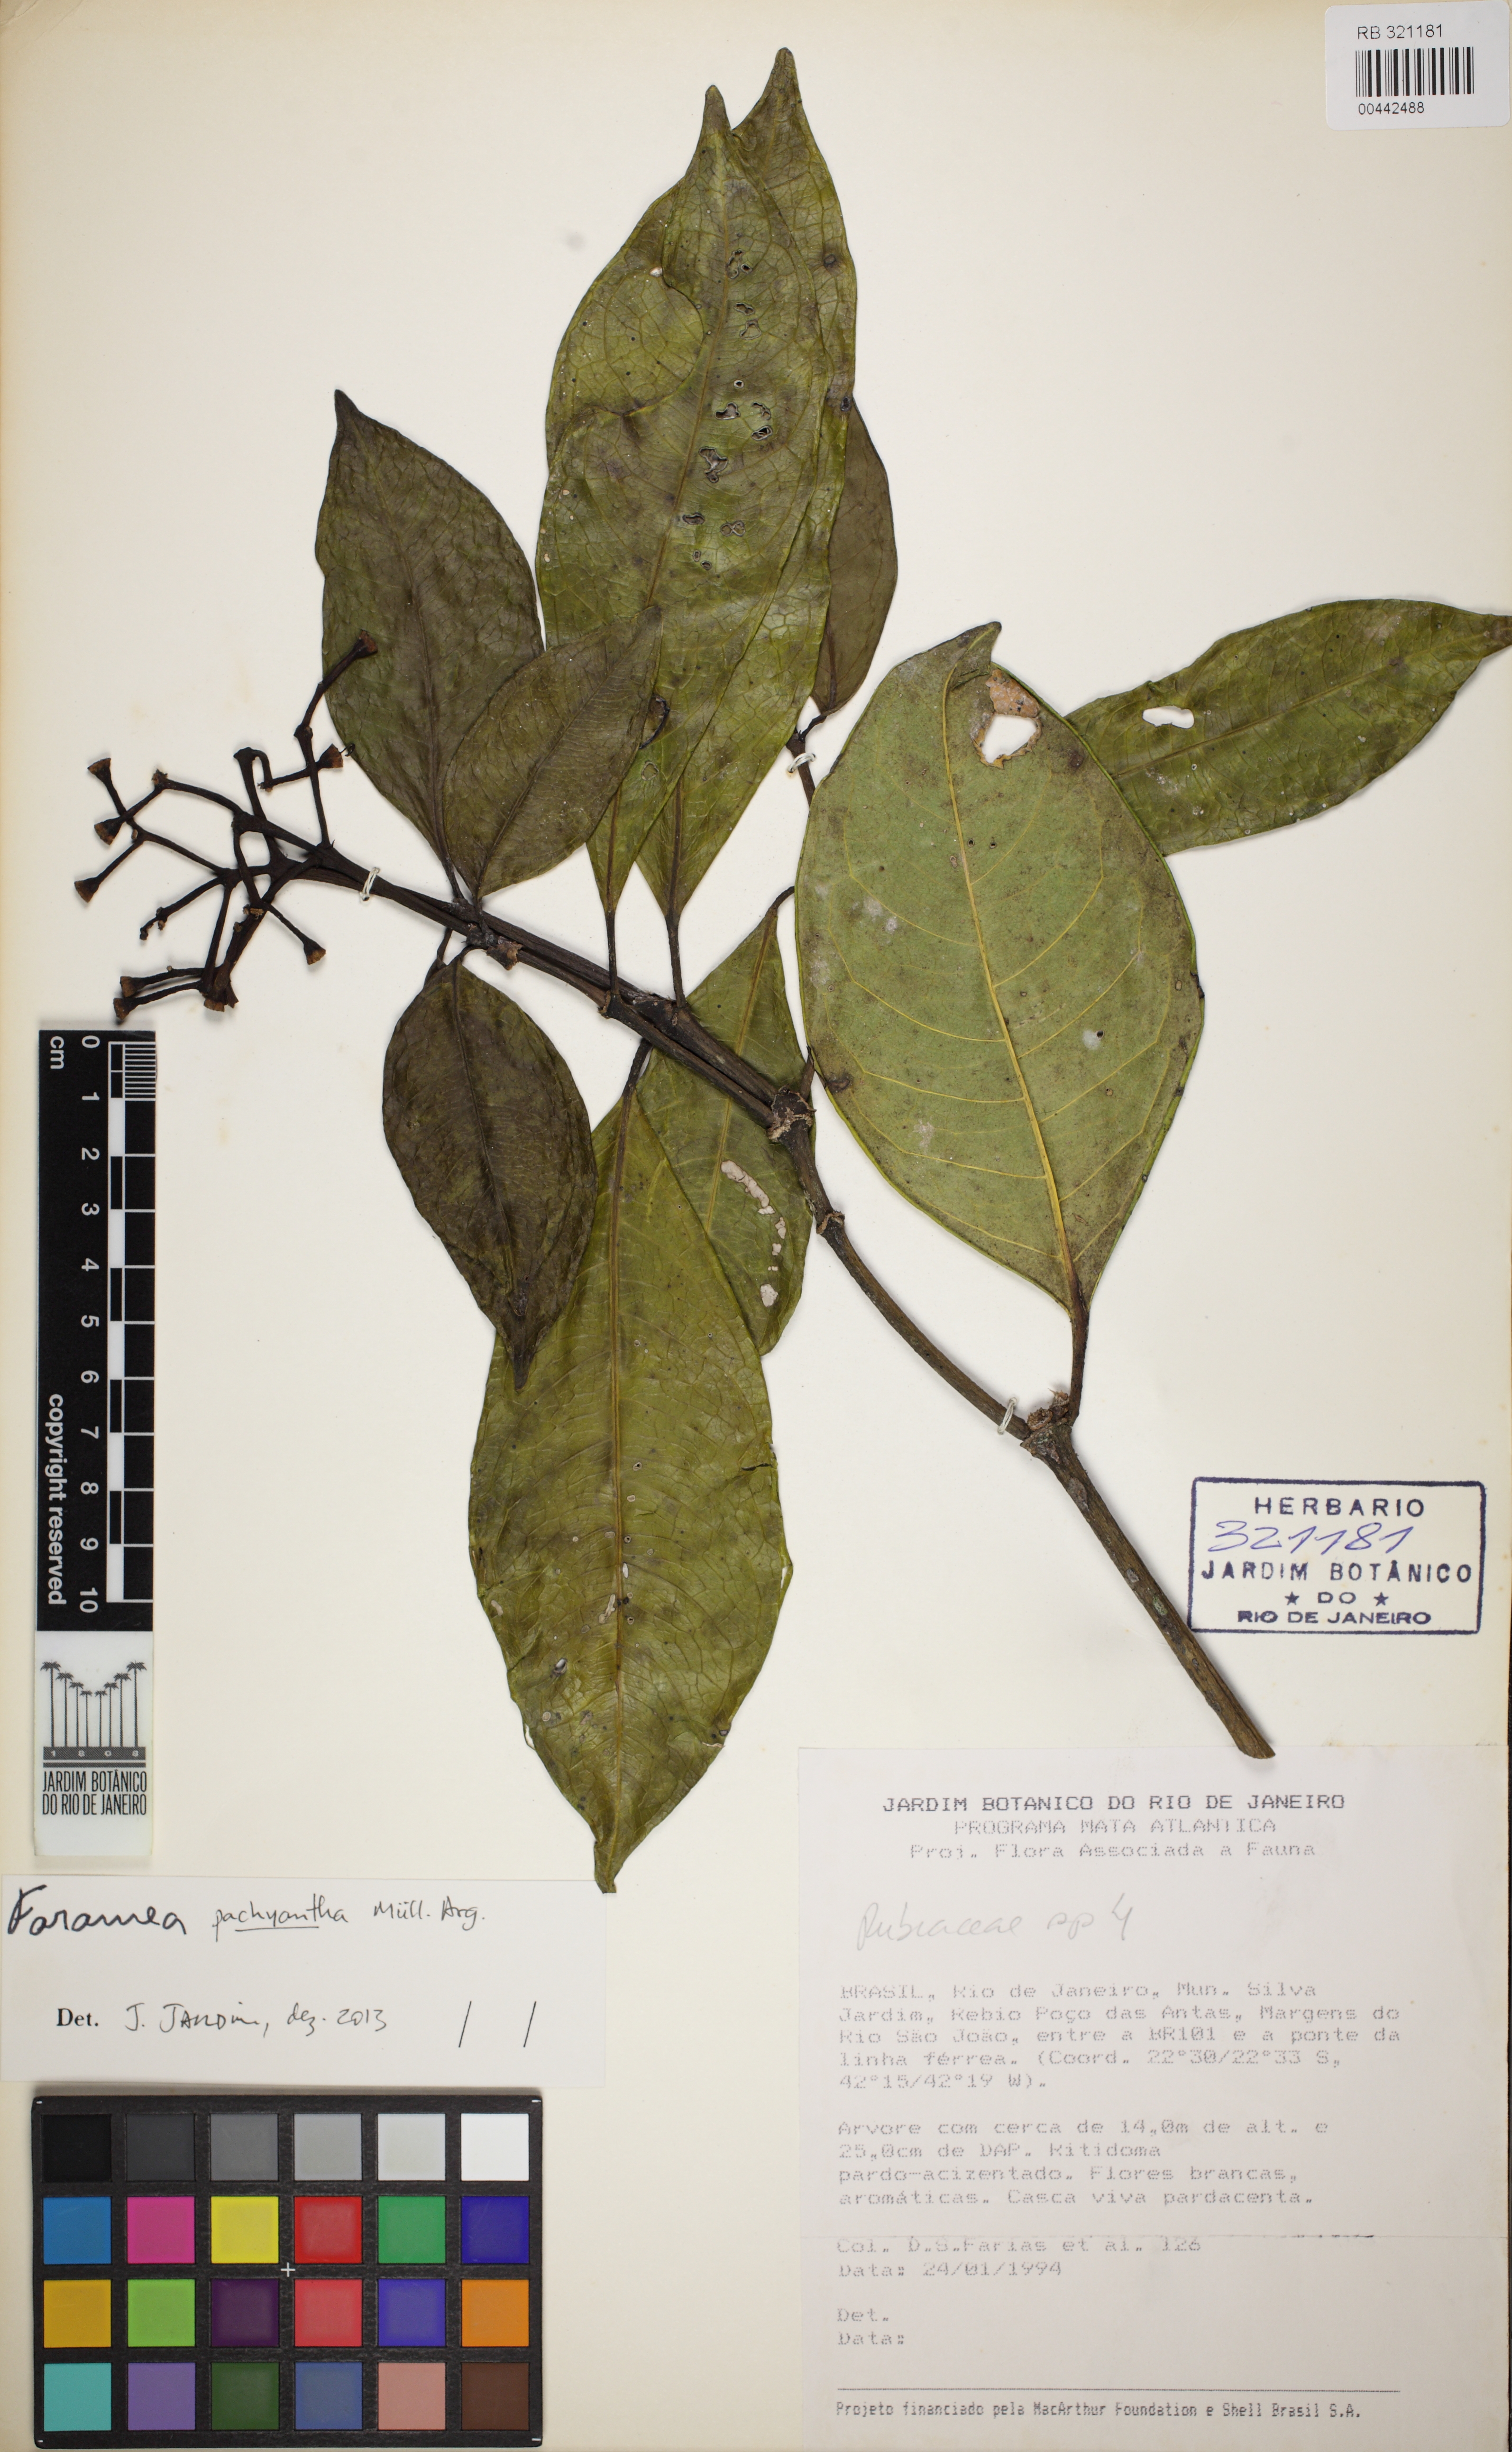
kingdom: Plantae
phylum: Tracheophyta
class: Magnoliopsida
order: Gentianales
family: Rubiaceae
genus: Faramea
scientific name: Faramea pachyantha
